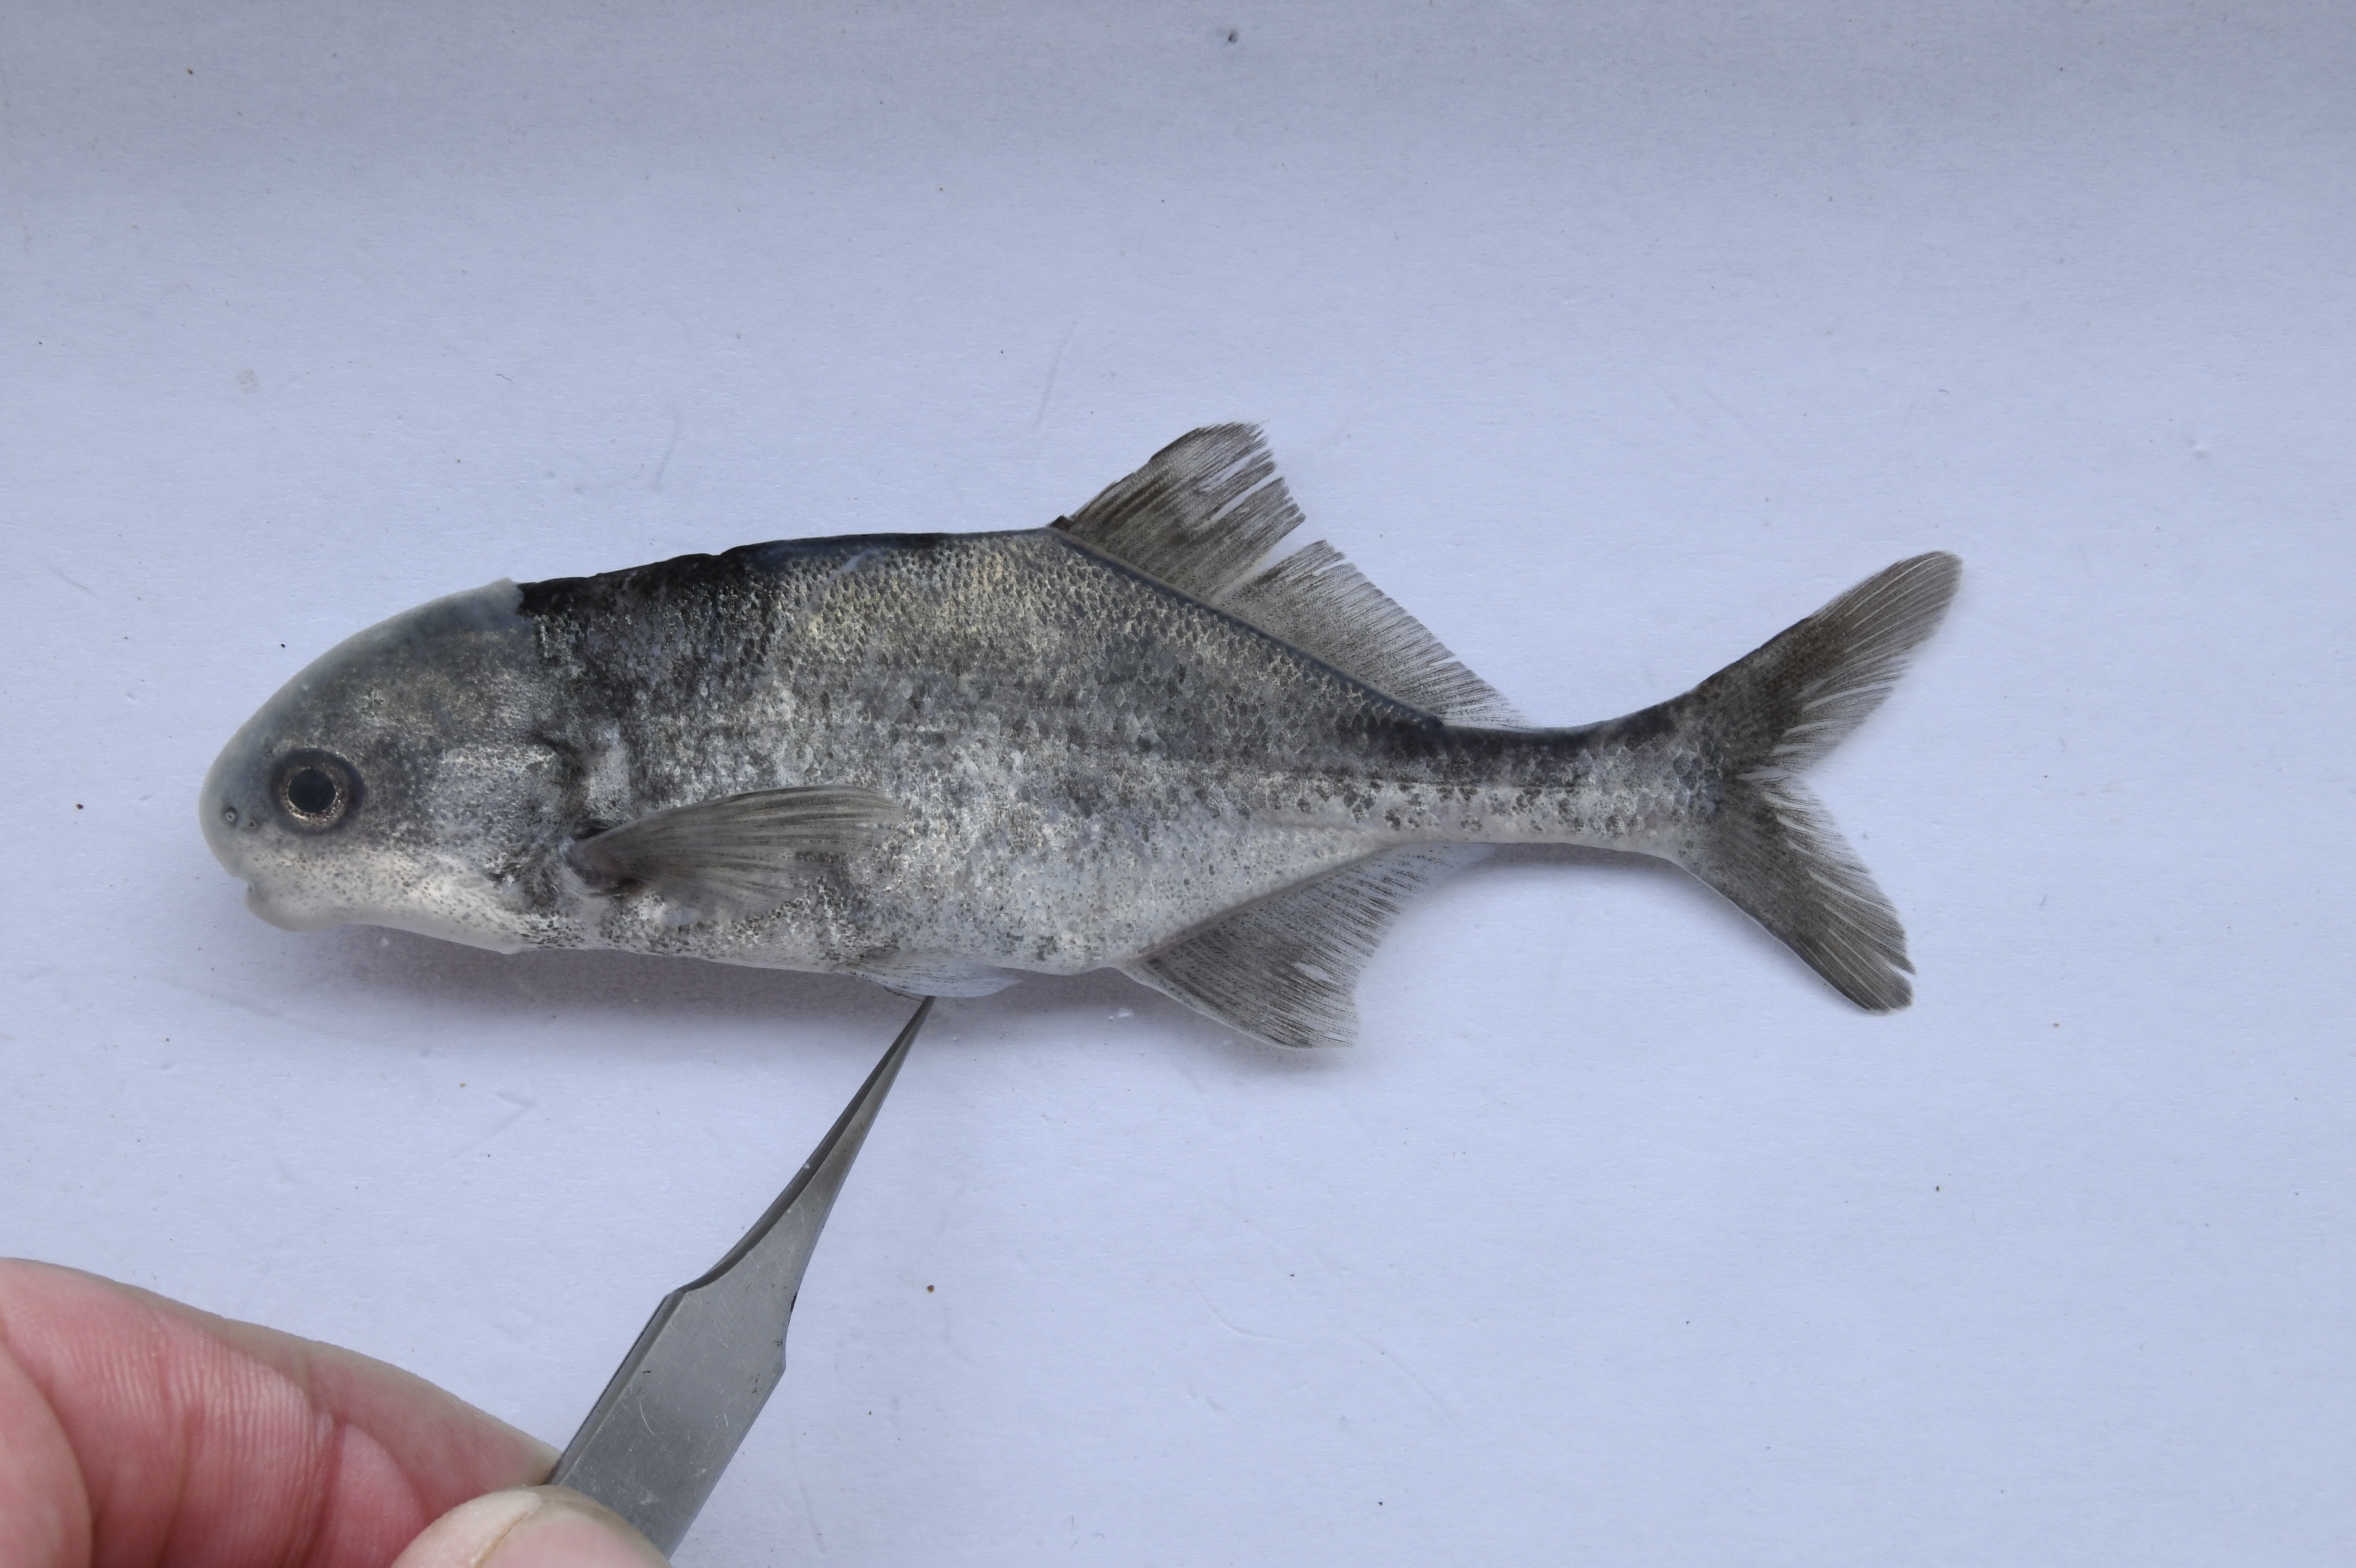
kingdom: Animalia
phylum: Chordata
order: Osteoglossiformes
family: Mormyridae
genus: Cyphomyrus
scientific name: Cyphomyrus discorhynchus
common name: Zambezi parrotfish
